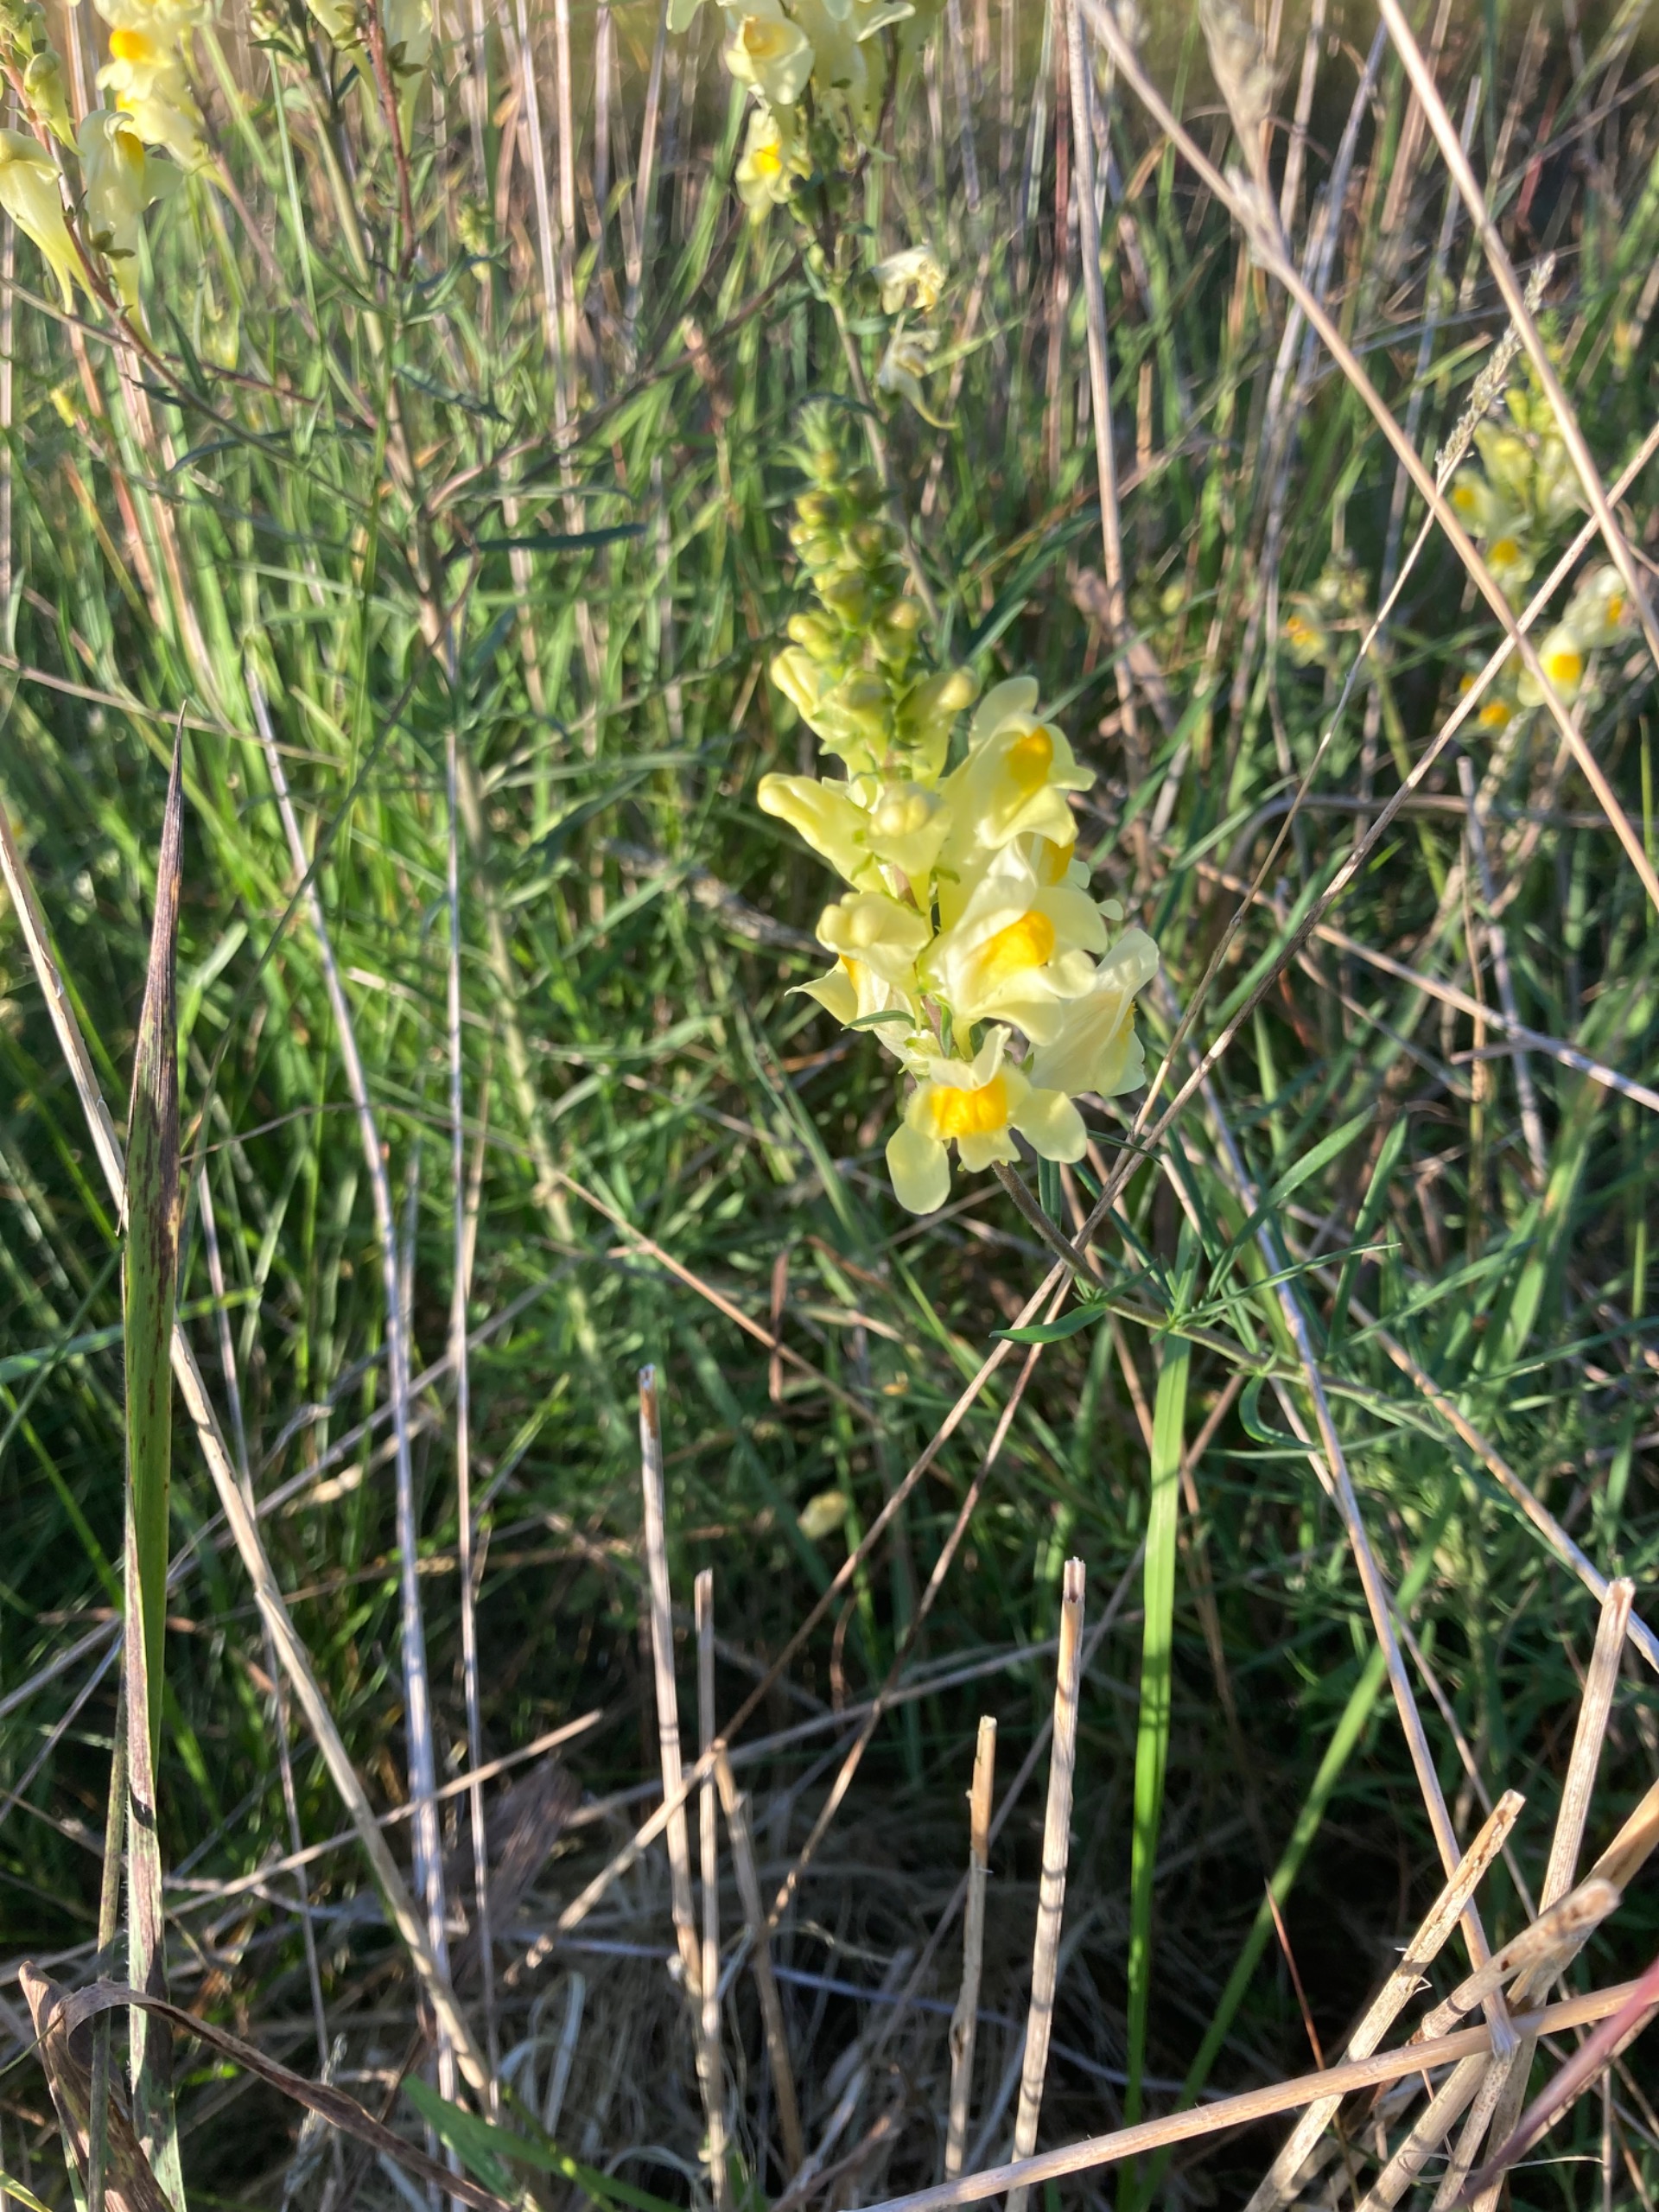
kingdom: Plantae
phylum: Tracheophyta
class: Magnoliopsida
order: Lamiales
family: Plantaginaceae
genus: Linaria
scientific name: Linaria vulgaris
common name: Almindelig torskemund
